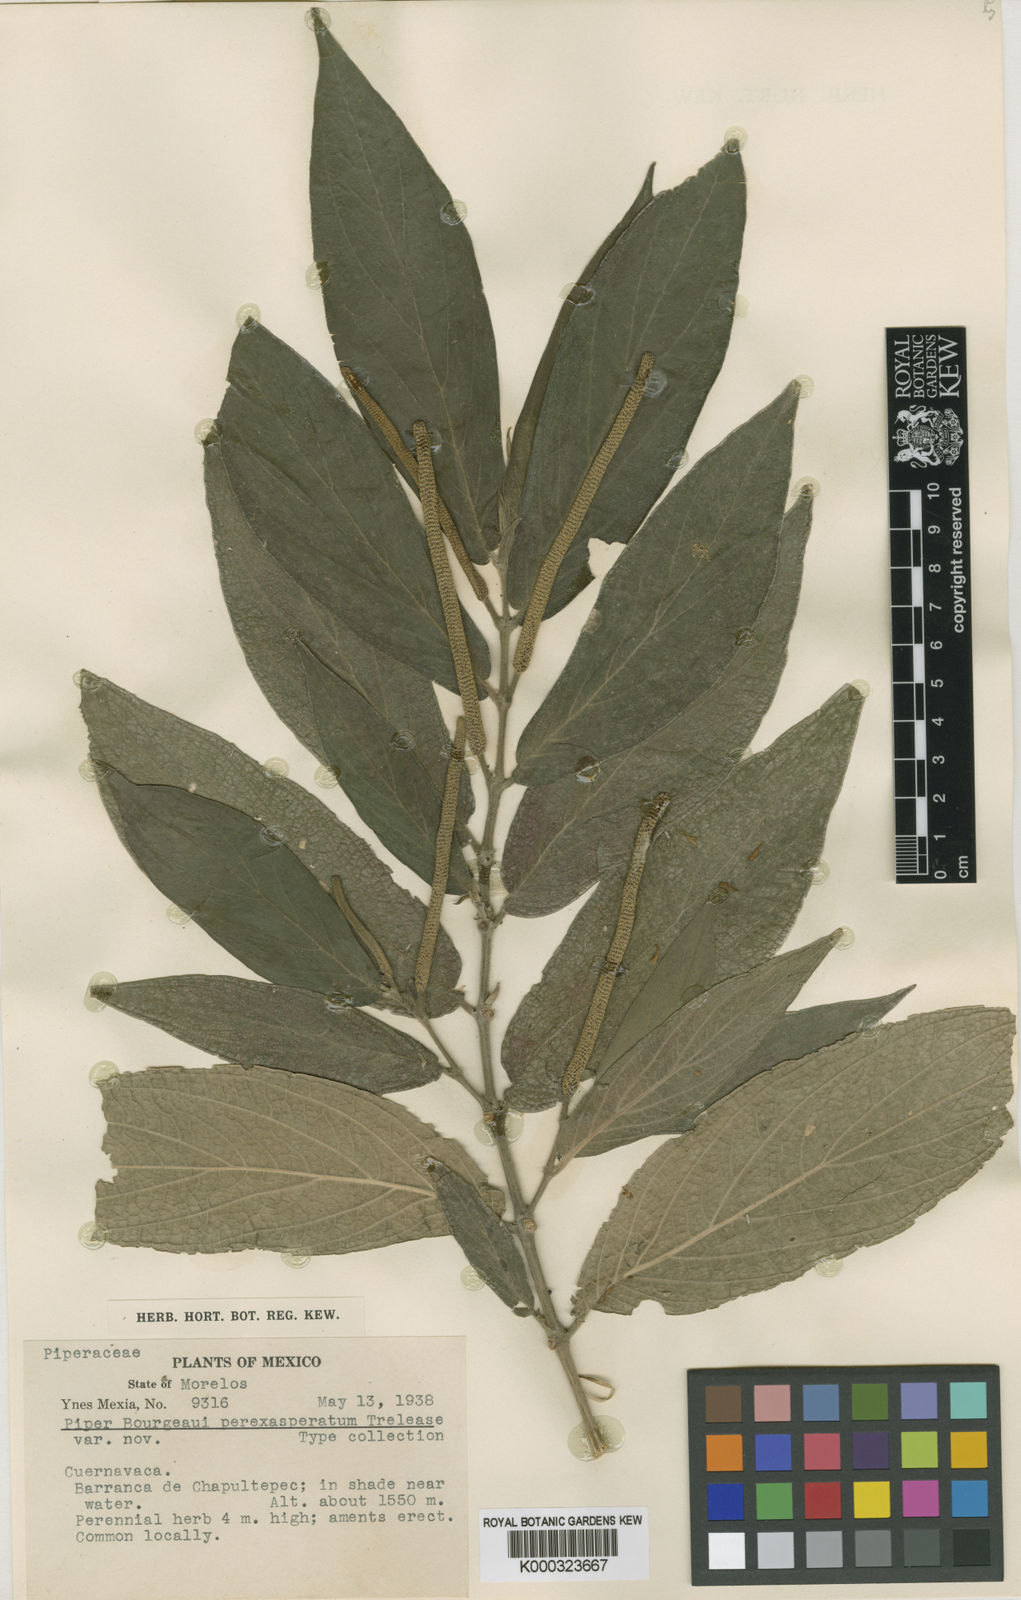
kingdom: Plantae
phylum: Tracheophyta
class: Magnoliopsida
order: Piperales
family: Piperaceae
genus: Piper
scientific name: Piper bourgeaui
